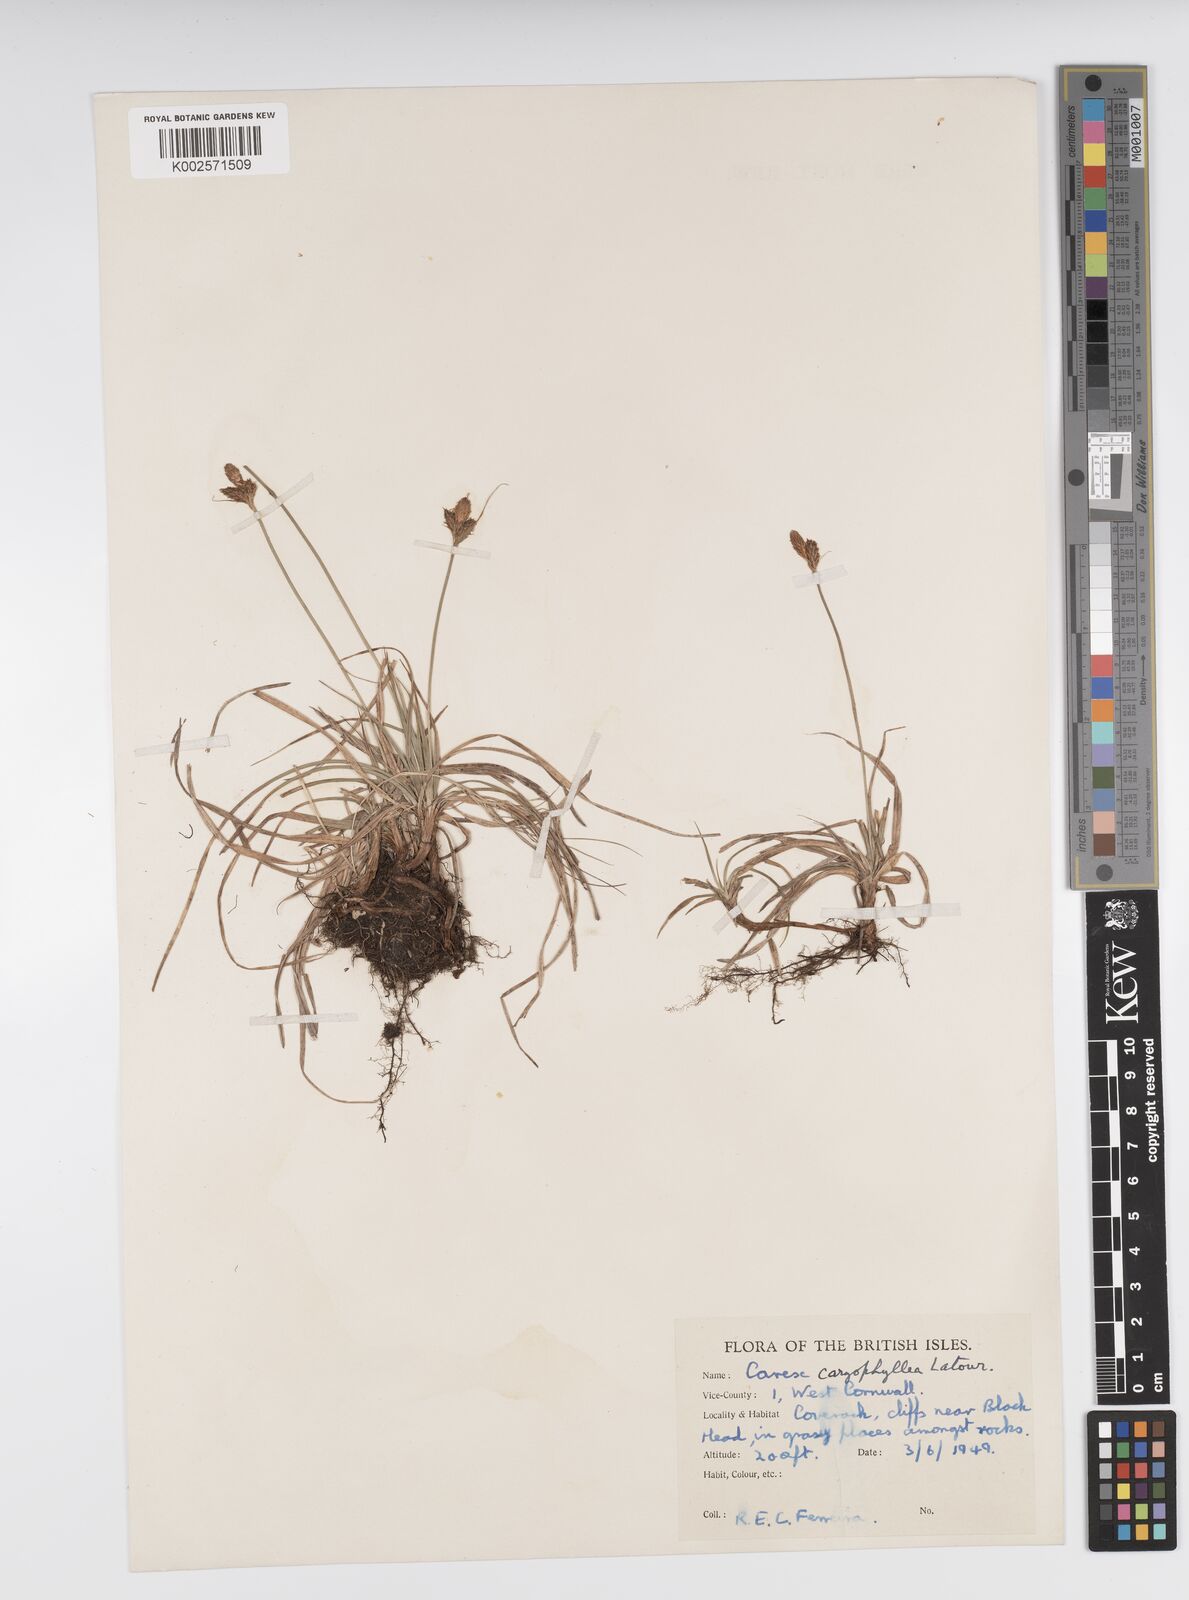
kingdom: Plantae
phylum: Tracheophyta
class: Liliopsida
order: Poales
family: Cyperaceae
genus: Carex
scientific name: Carex caryophyllea
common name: Spring sedge
